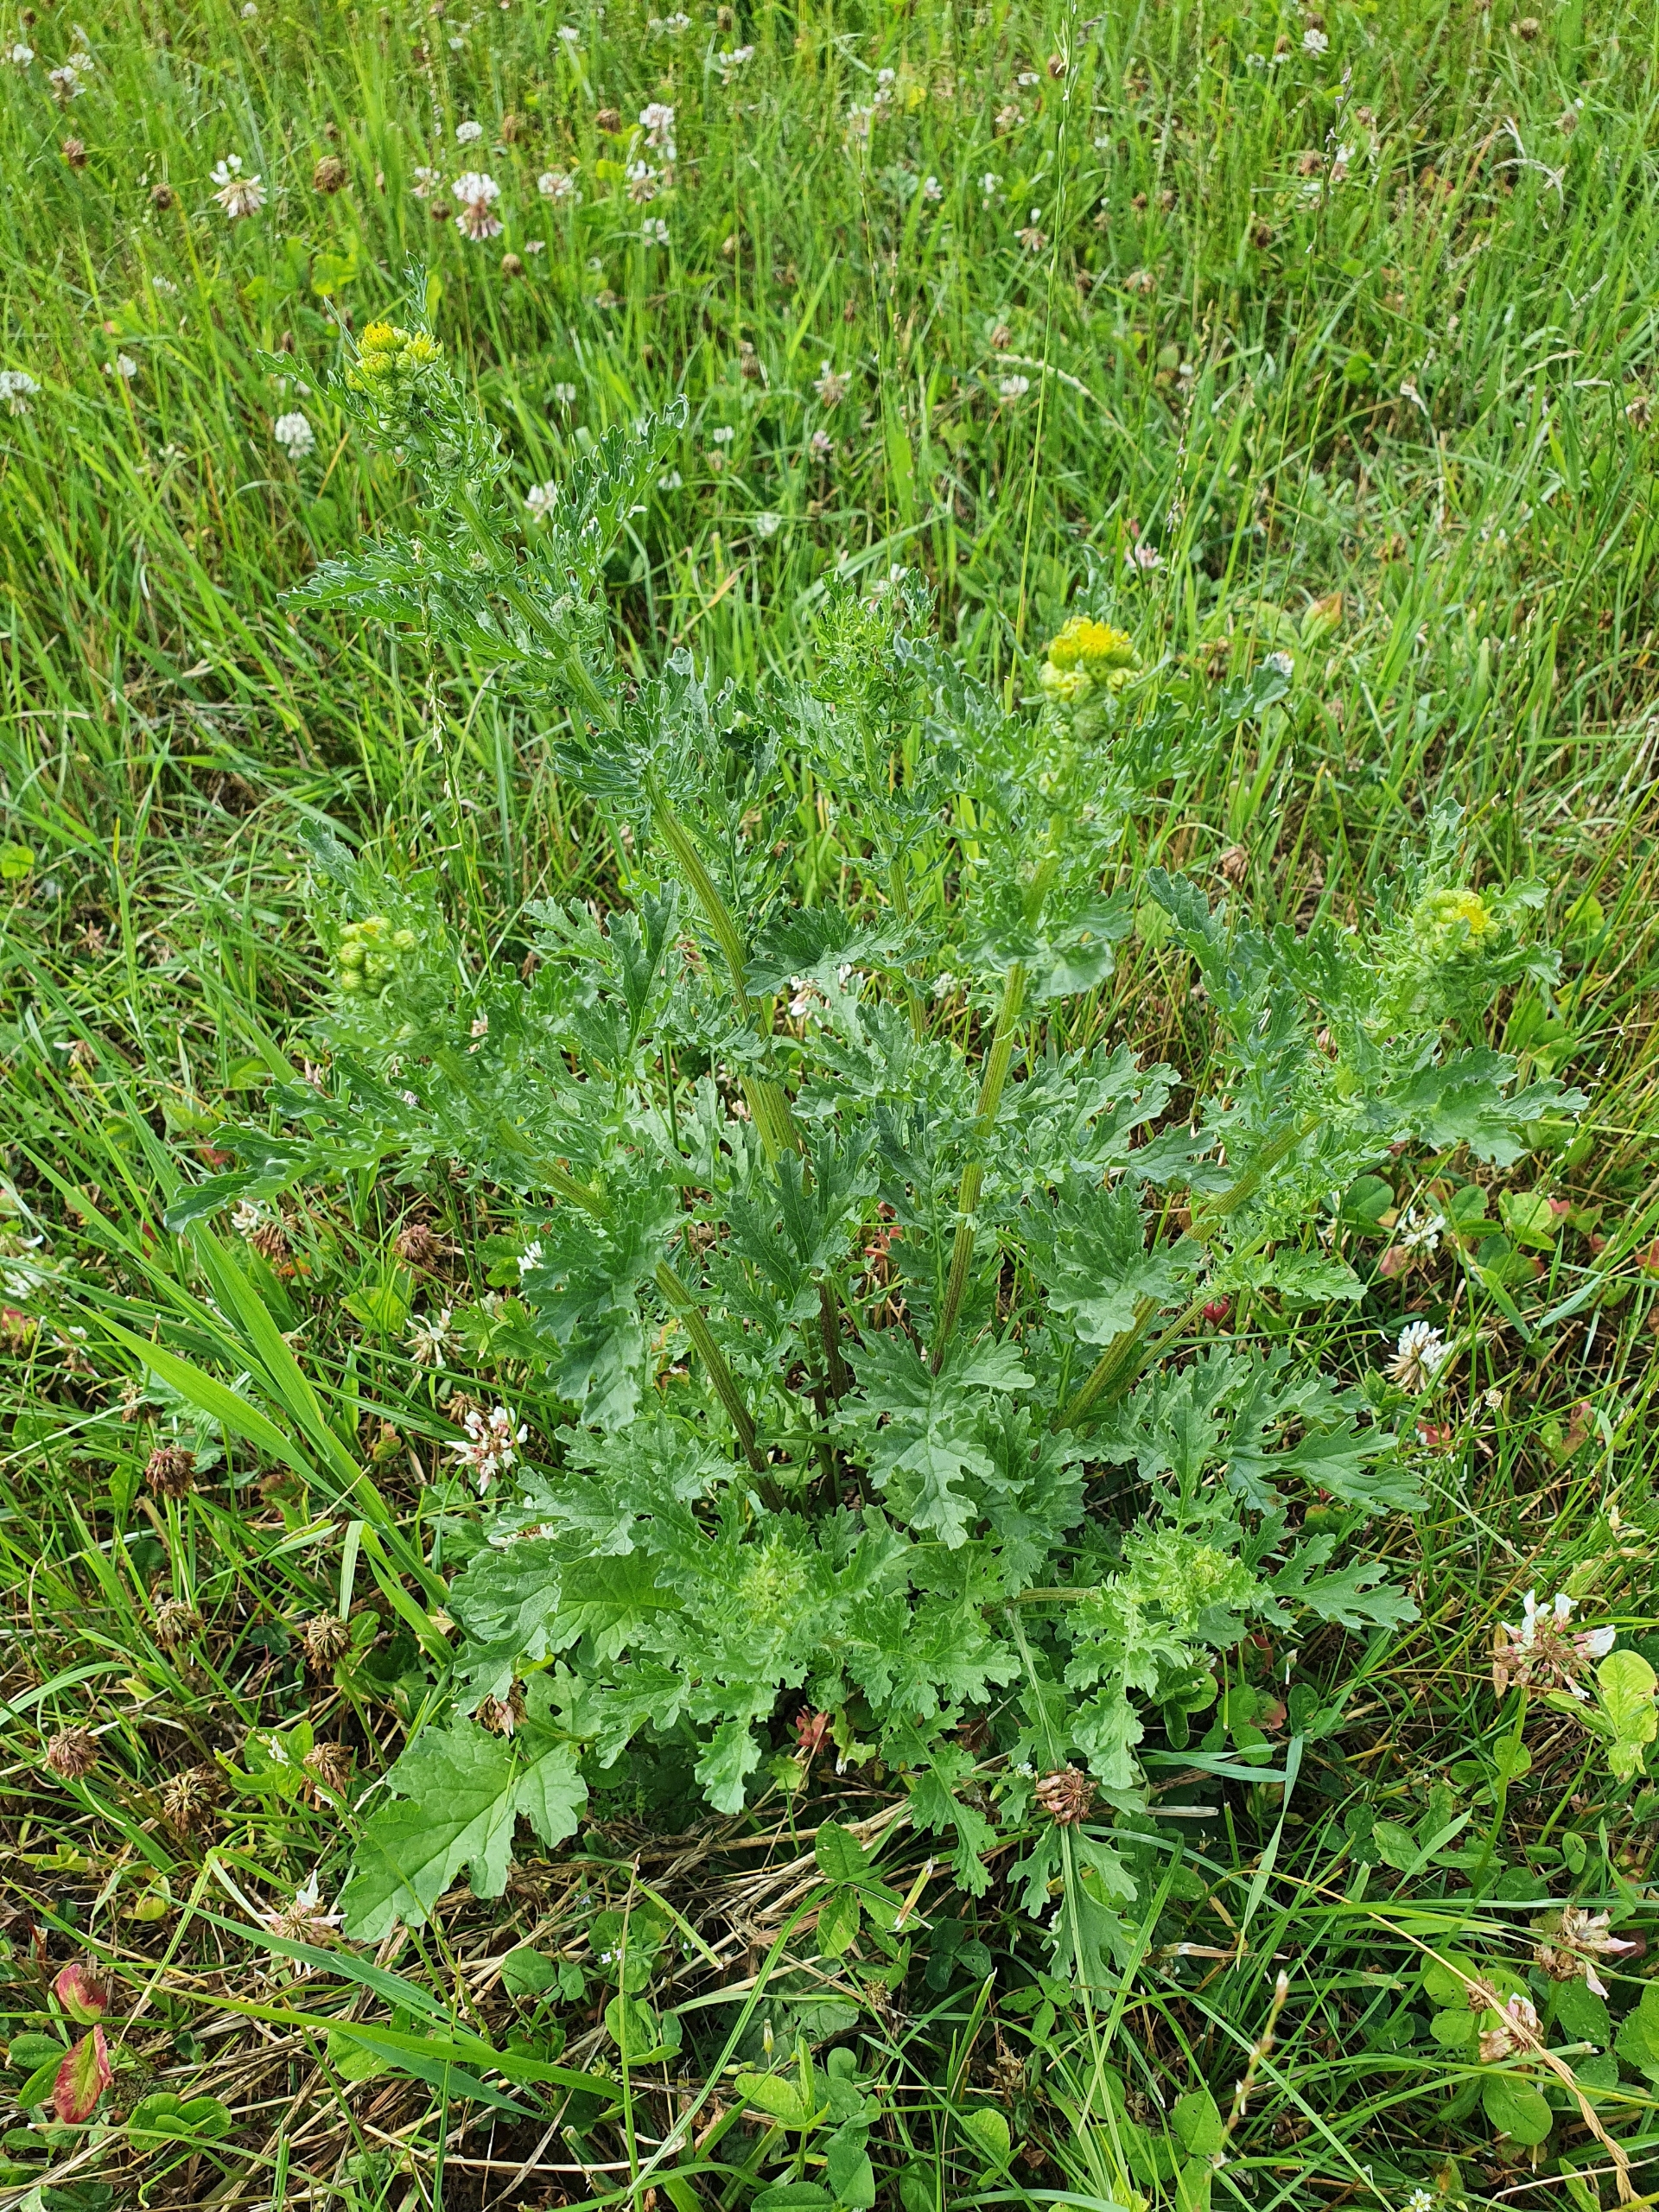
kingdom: Plantae
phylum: Tracheophyta
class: Magnoliopsida
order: Asterales
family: Asteraceae
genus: Jacobaea
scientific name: Jacobaea vulgaris
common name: Eng-brandbæger
